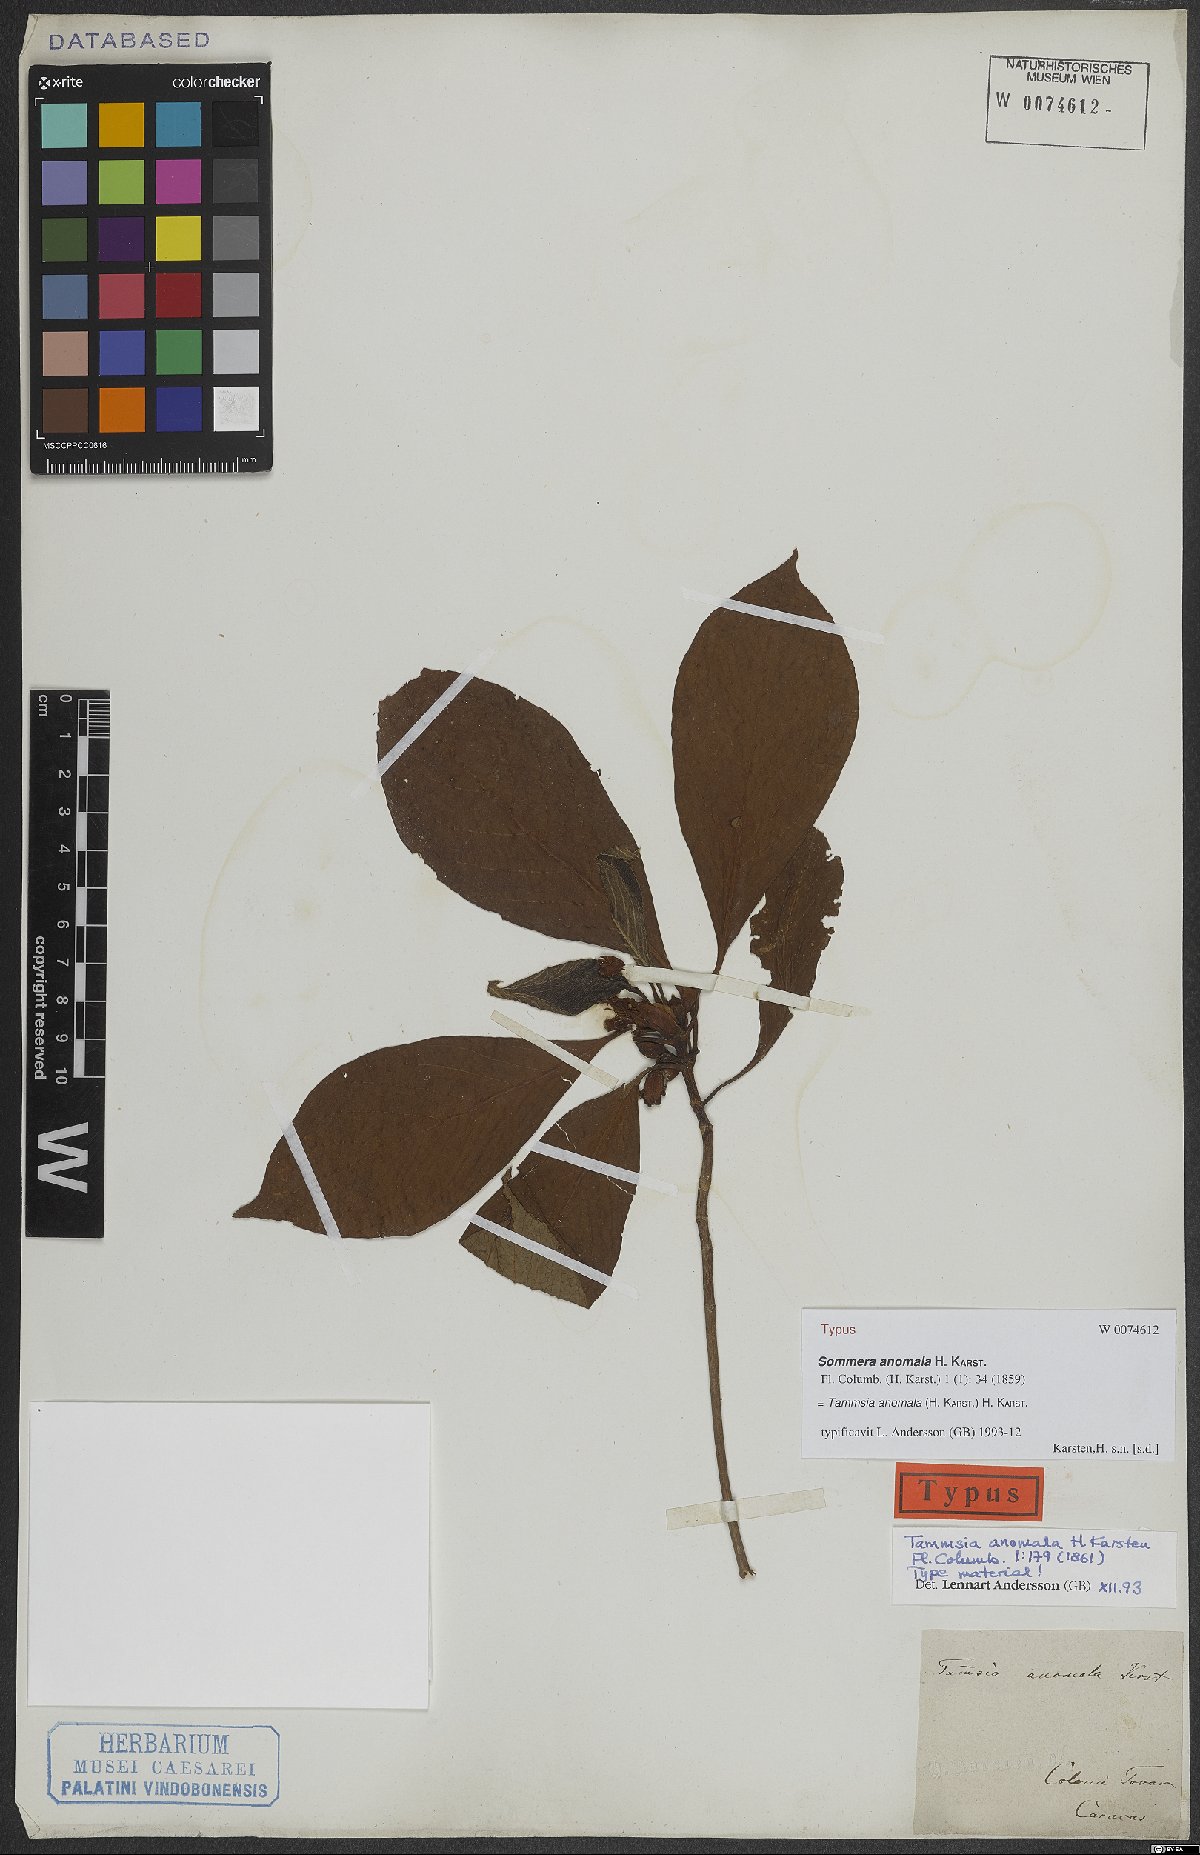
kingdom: Plantae
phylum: Tracheophyta
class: Magnoliopsida
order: Gentianales
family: Rubiaceae
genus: Tammsia
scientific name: Tammsia anomala
